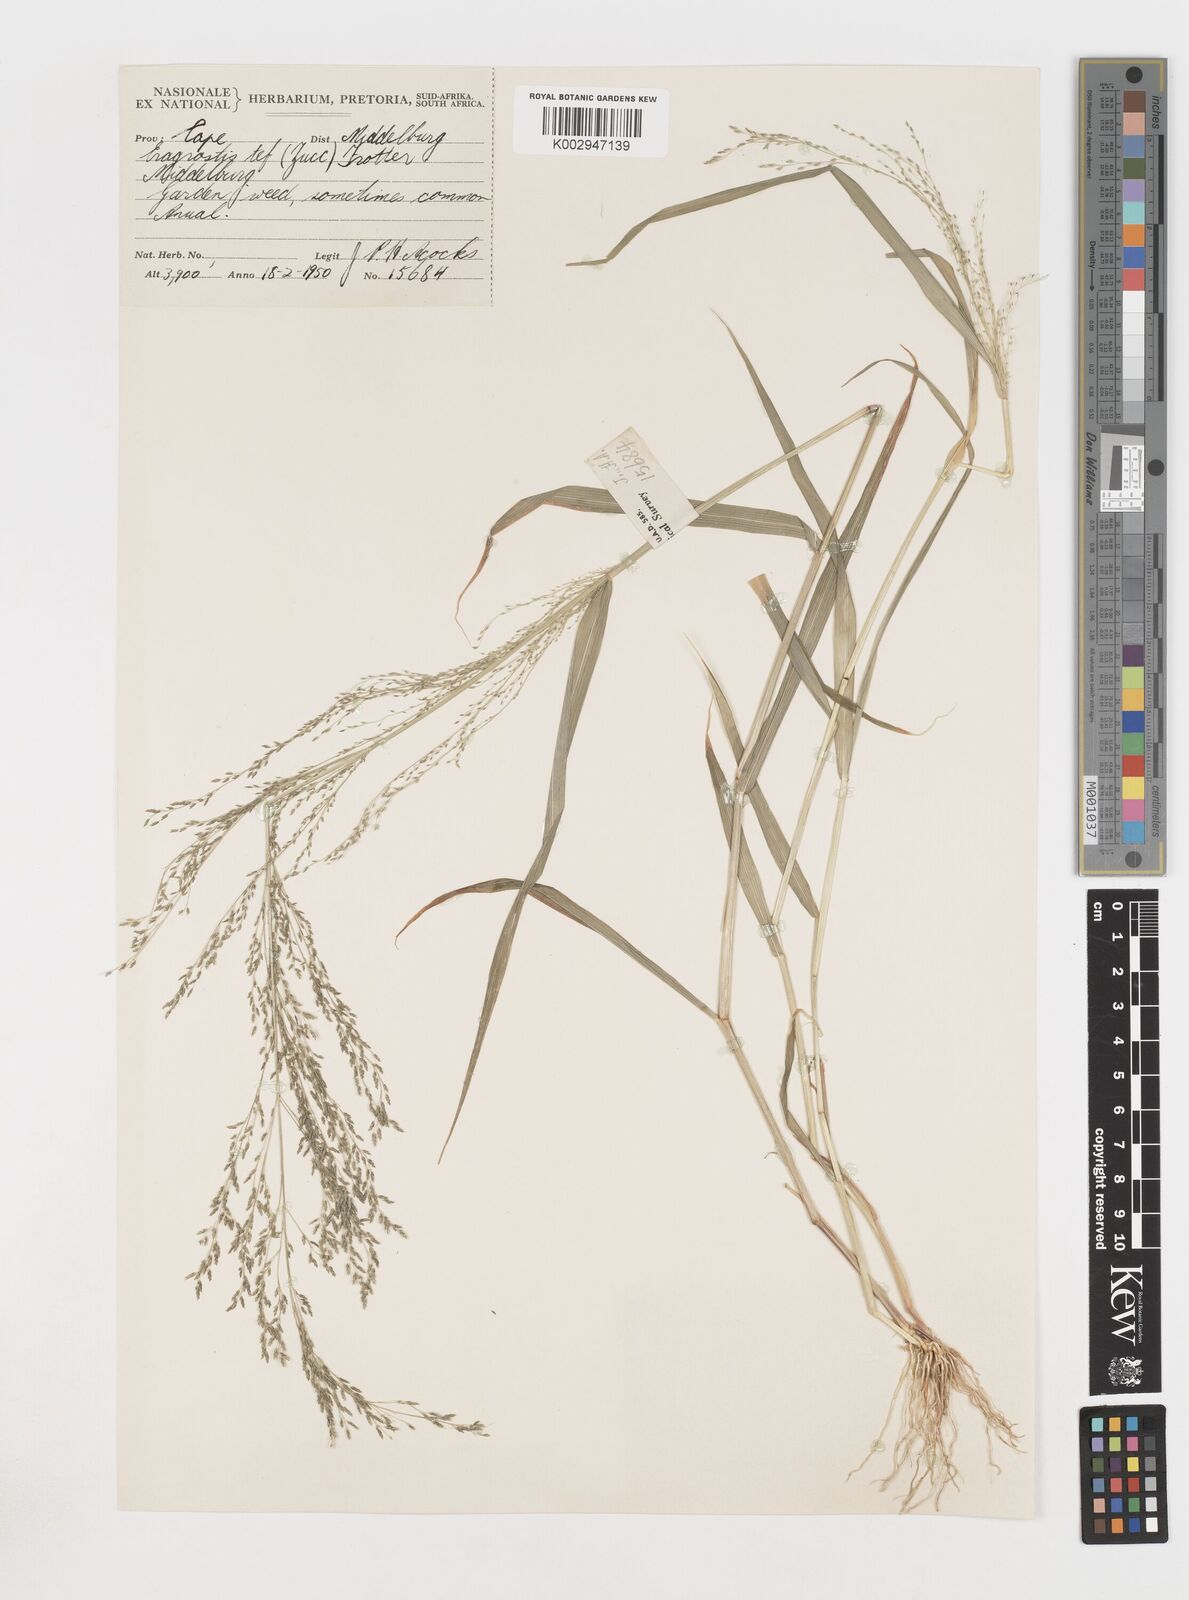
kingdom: Plantae
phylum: Tracheophyta
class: Liliopsida
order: Poales
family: Poaceae
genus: Eragrostis
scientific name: Eragrostis tef
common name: Teff
